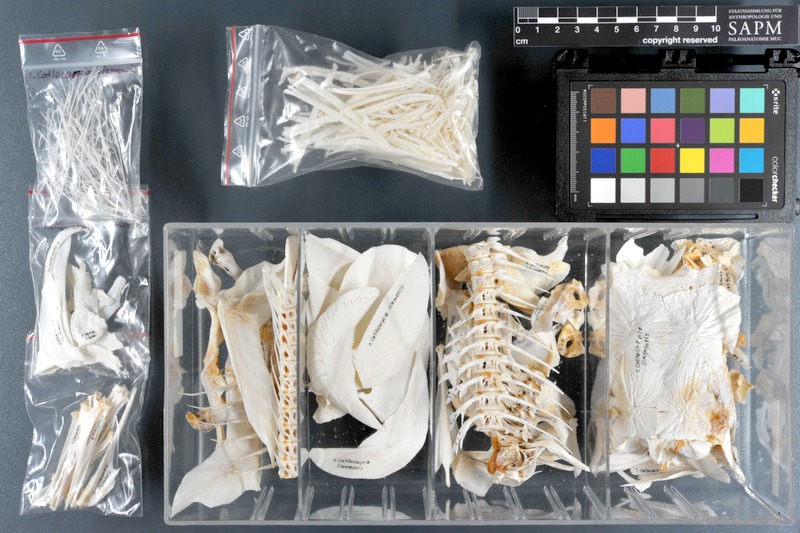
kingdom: Animalia
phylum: Chordata
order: Cypriniformes
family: Cyprinidae
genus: Catlocarpio
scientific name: Catlocarpio siamensis
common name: Giant barb
